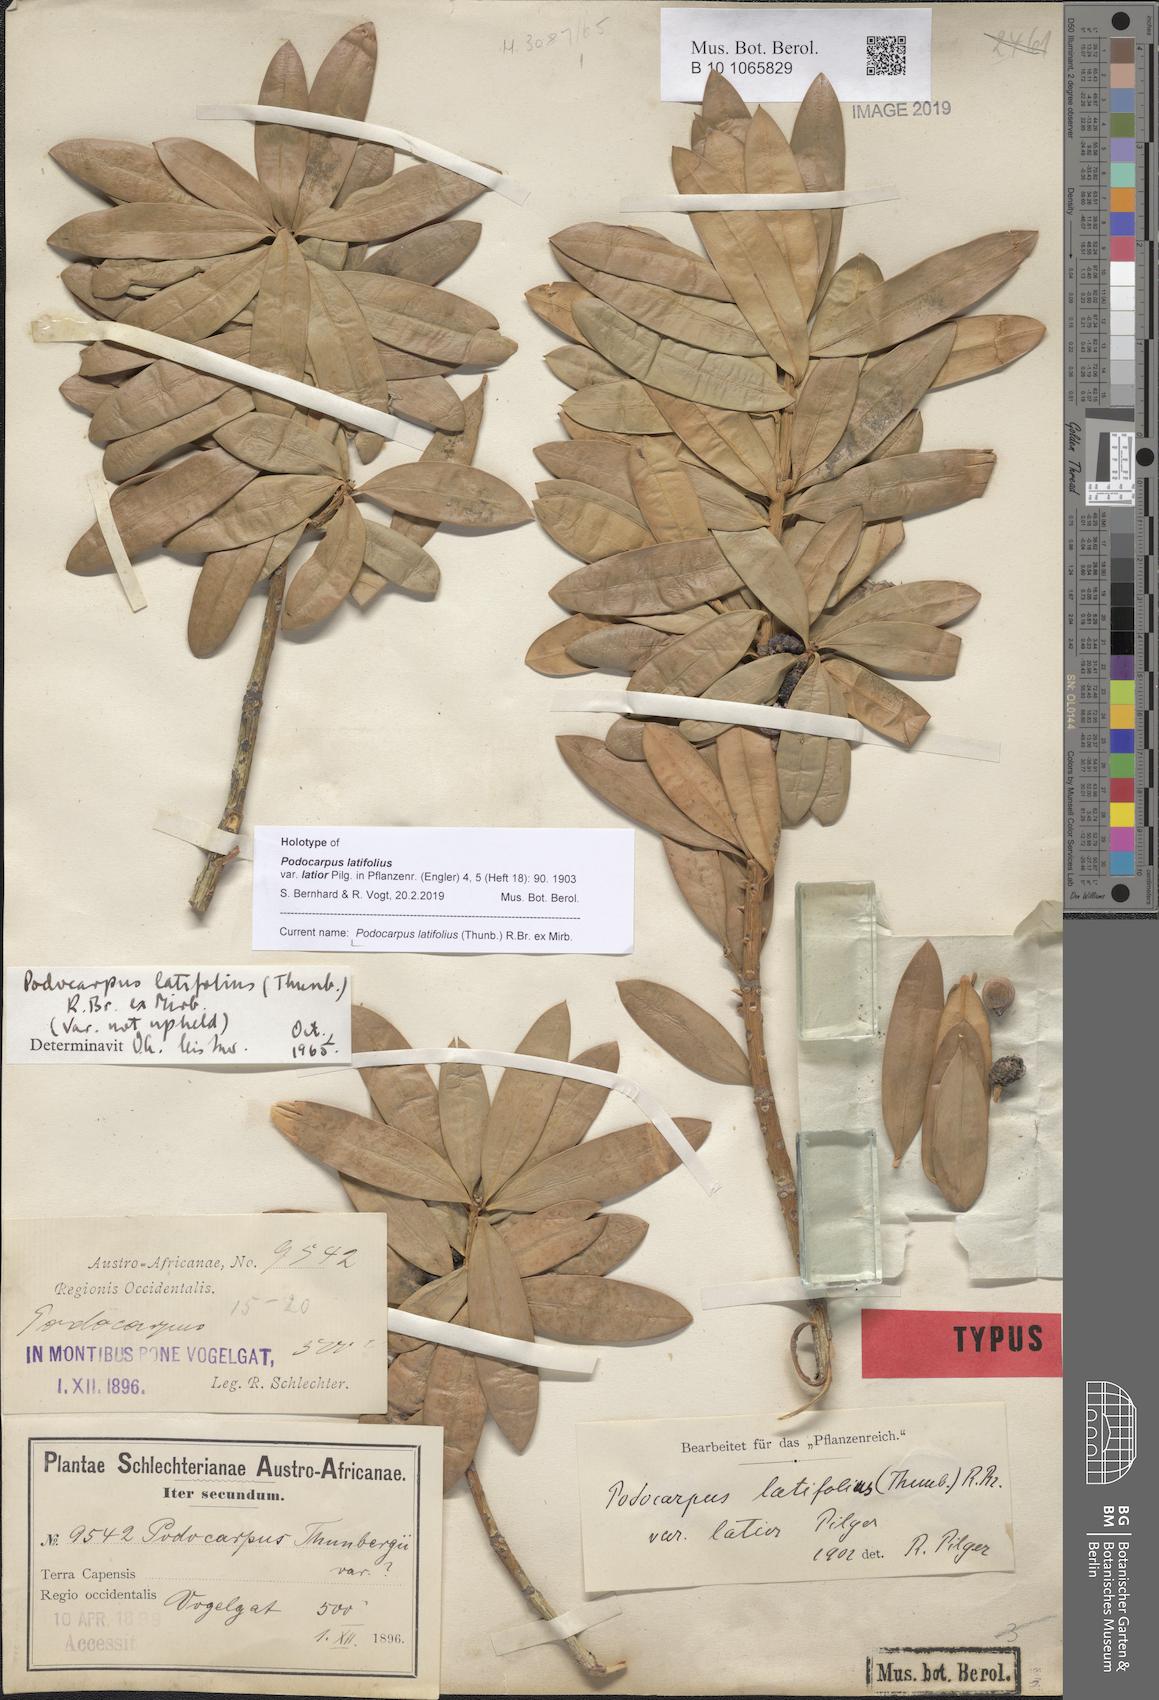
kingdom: Plantae
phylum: Tracheophyta
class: Pinopsida
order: Pinales
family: Podocarpaceae
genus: Podocarpus
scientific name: Podocarpus latifolius
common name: True yellowwood
